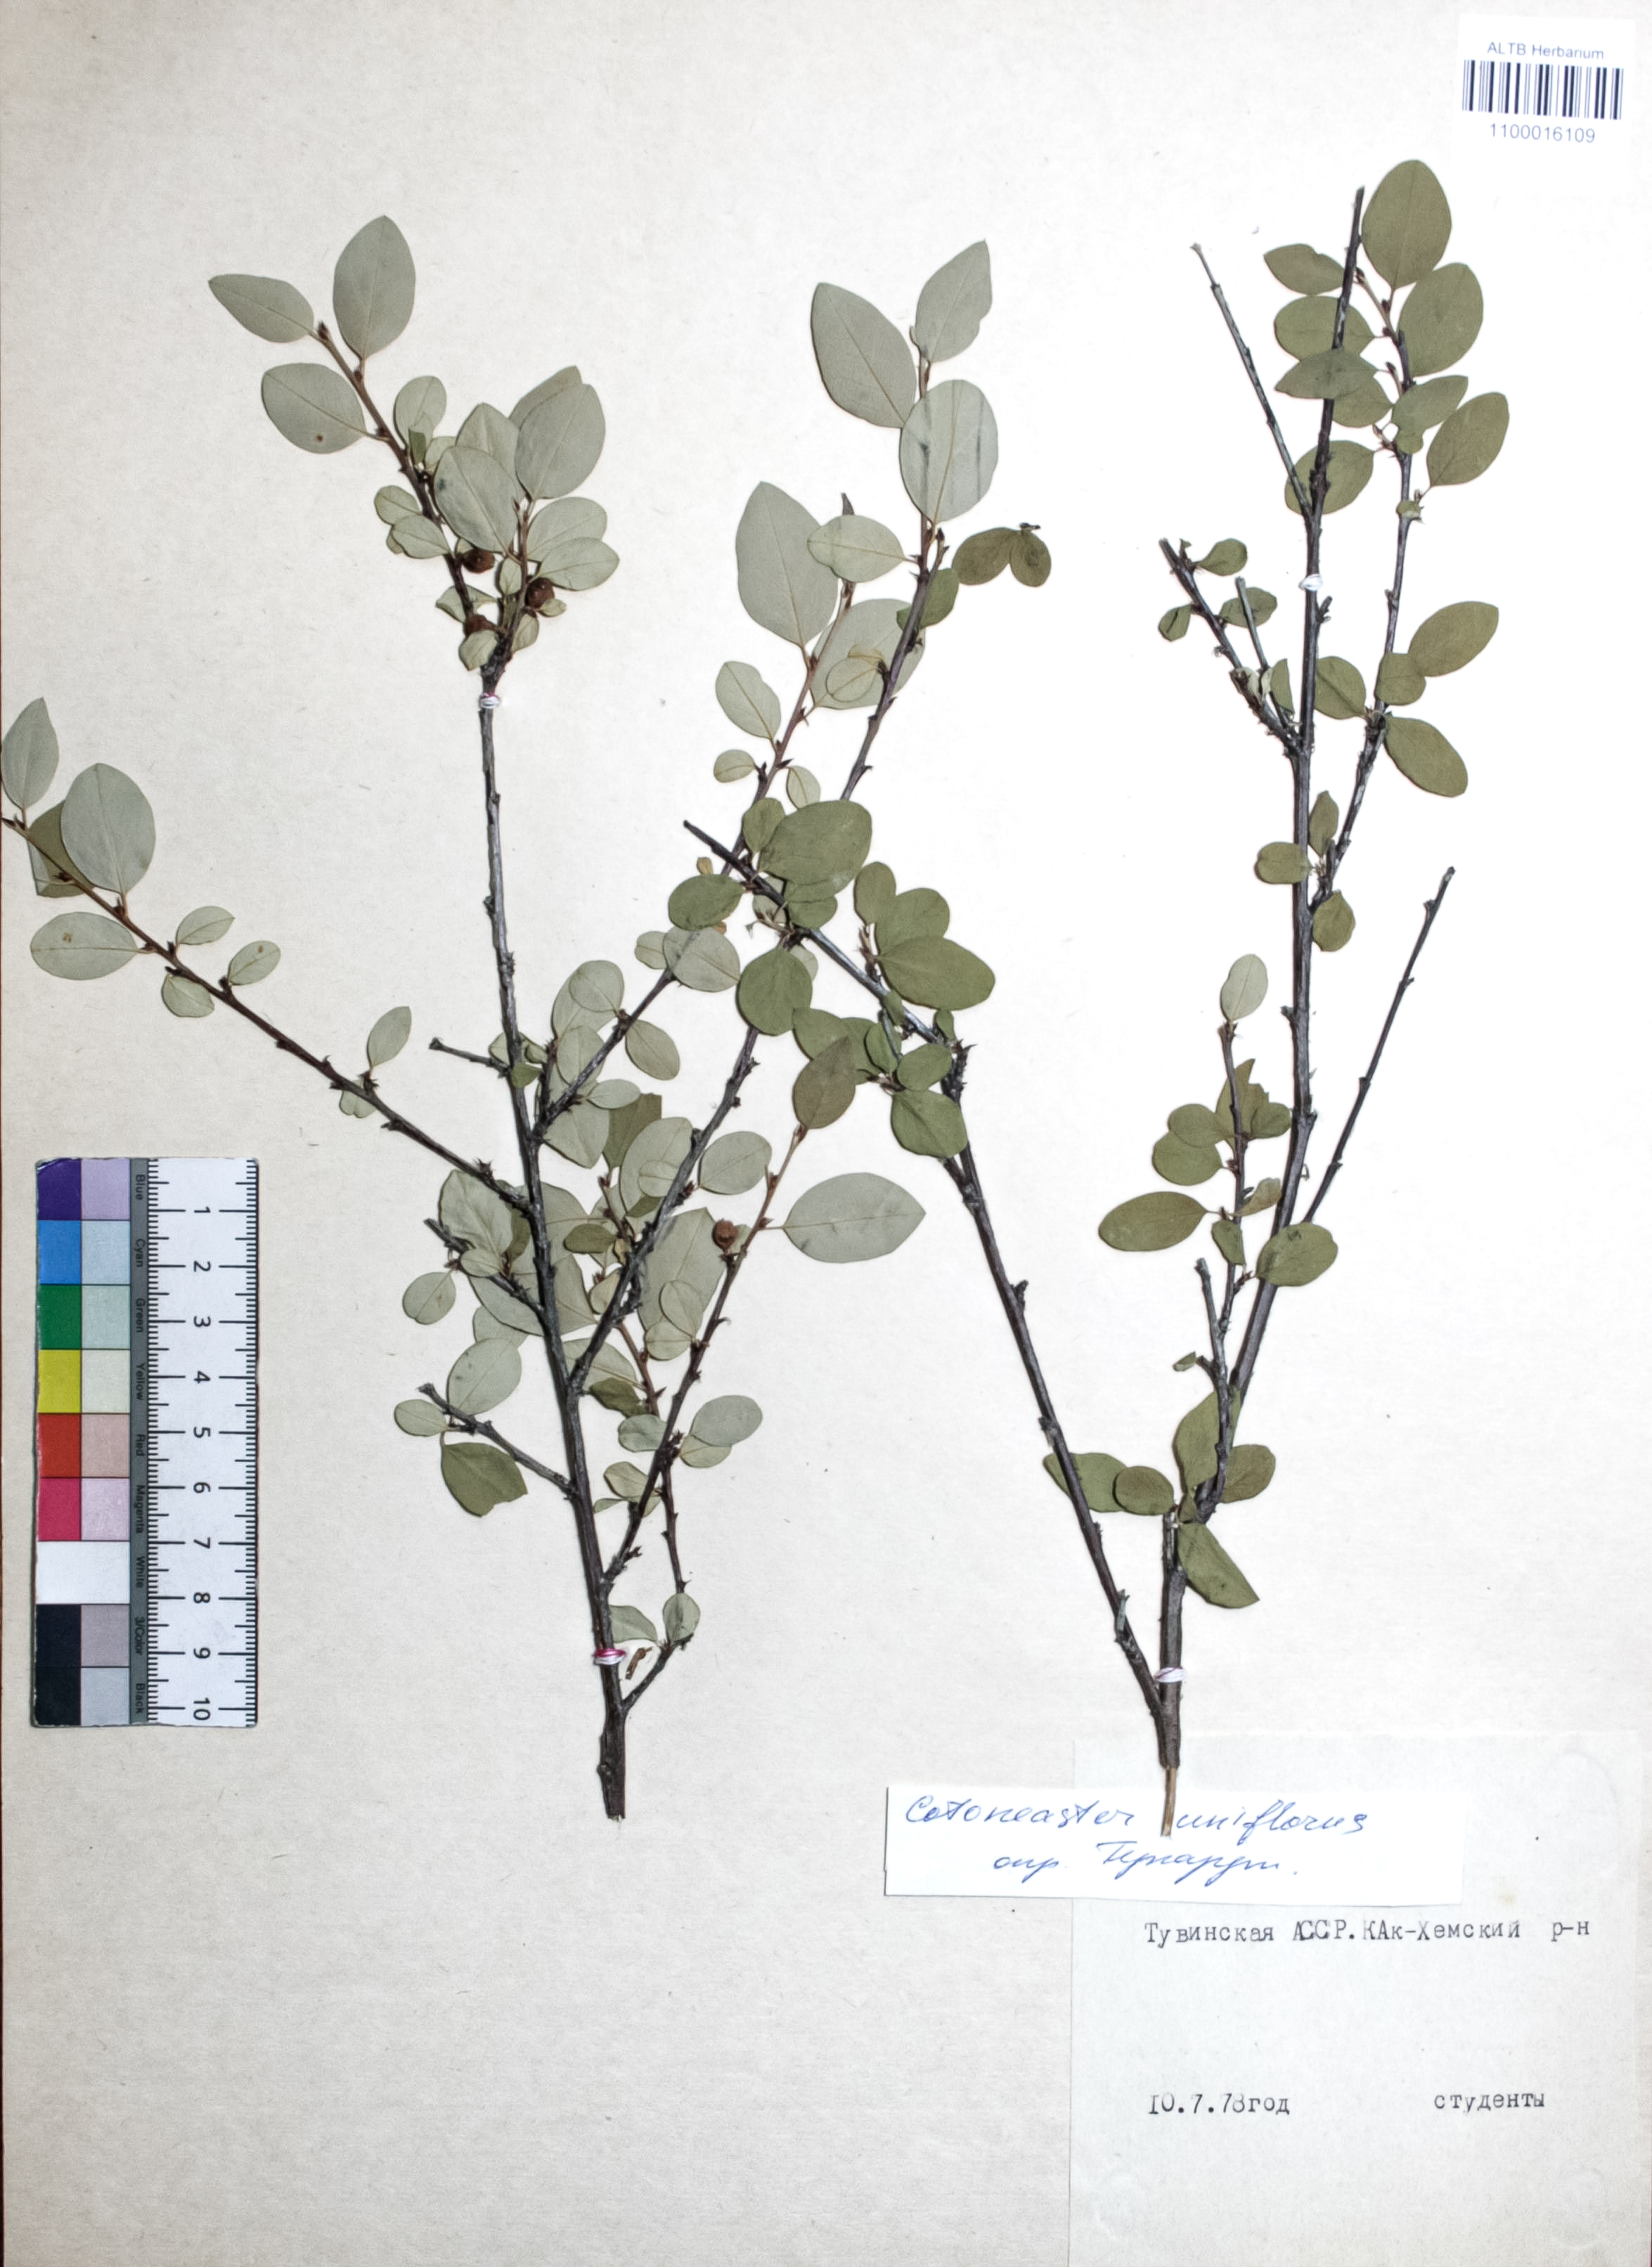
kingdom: Plantae
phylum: Tracheophyta
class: Magnoliopsida
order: Rosales
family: Rosaceae
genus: Cotoneaster
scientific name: Cotoneaster uniflorus
